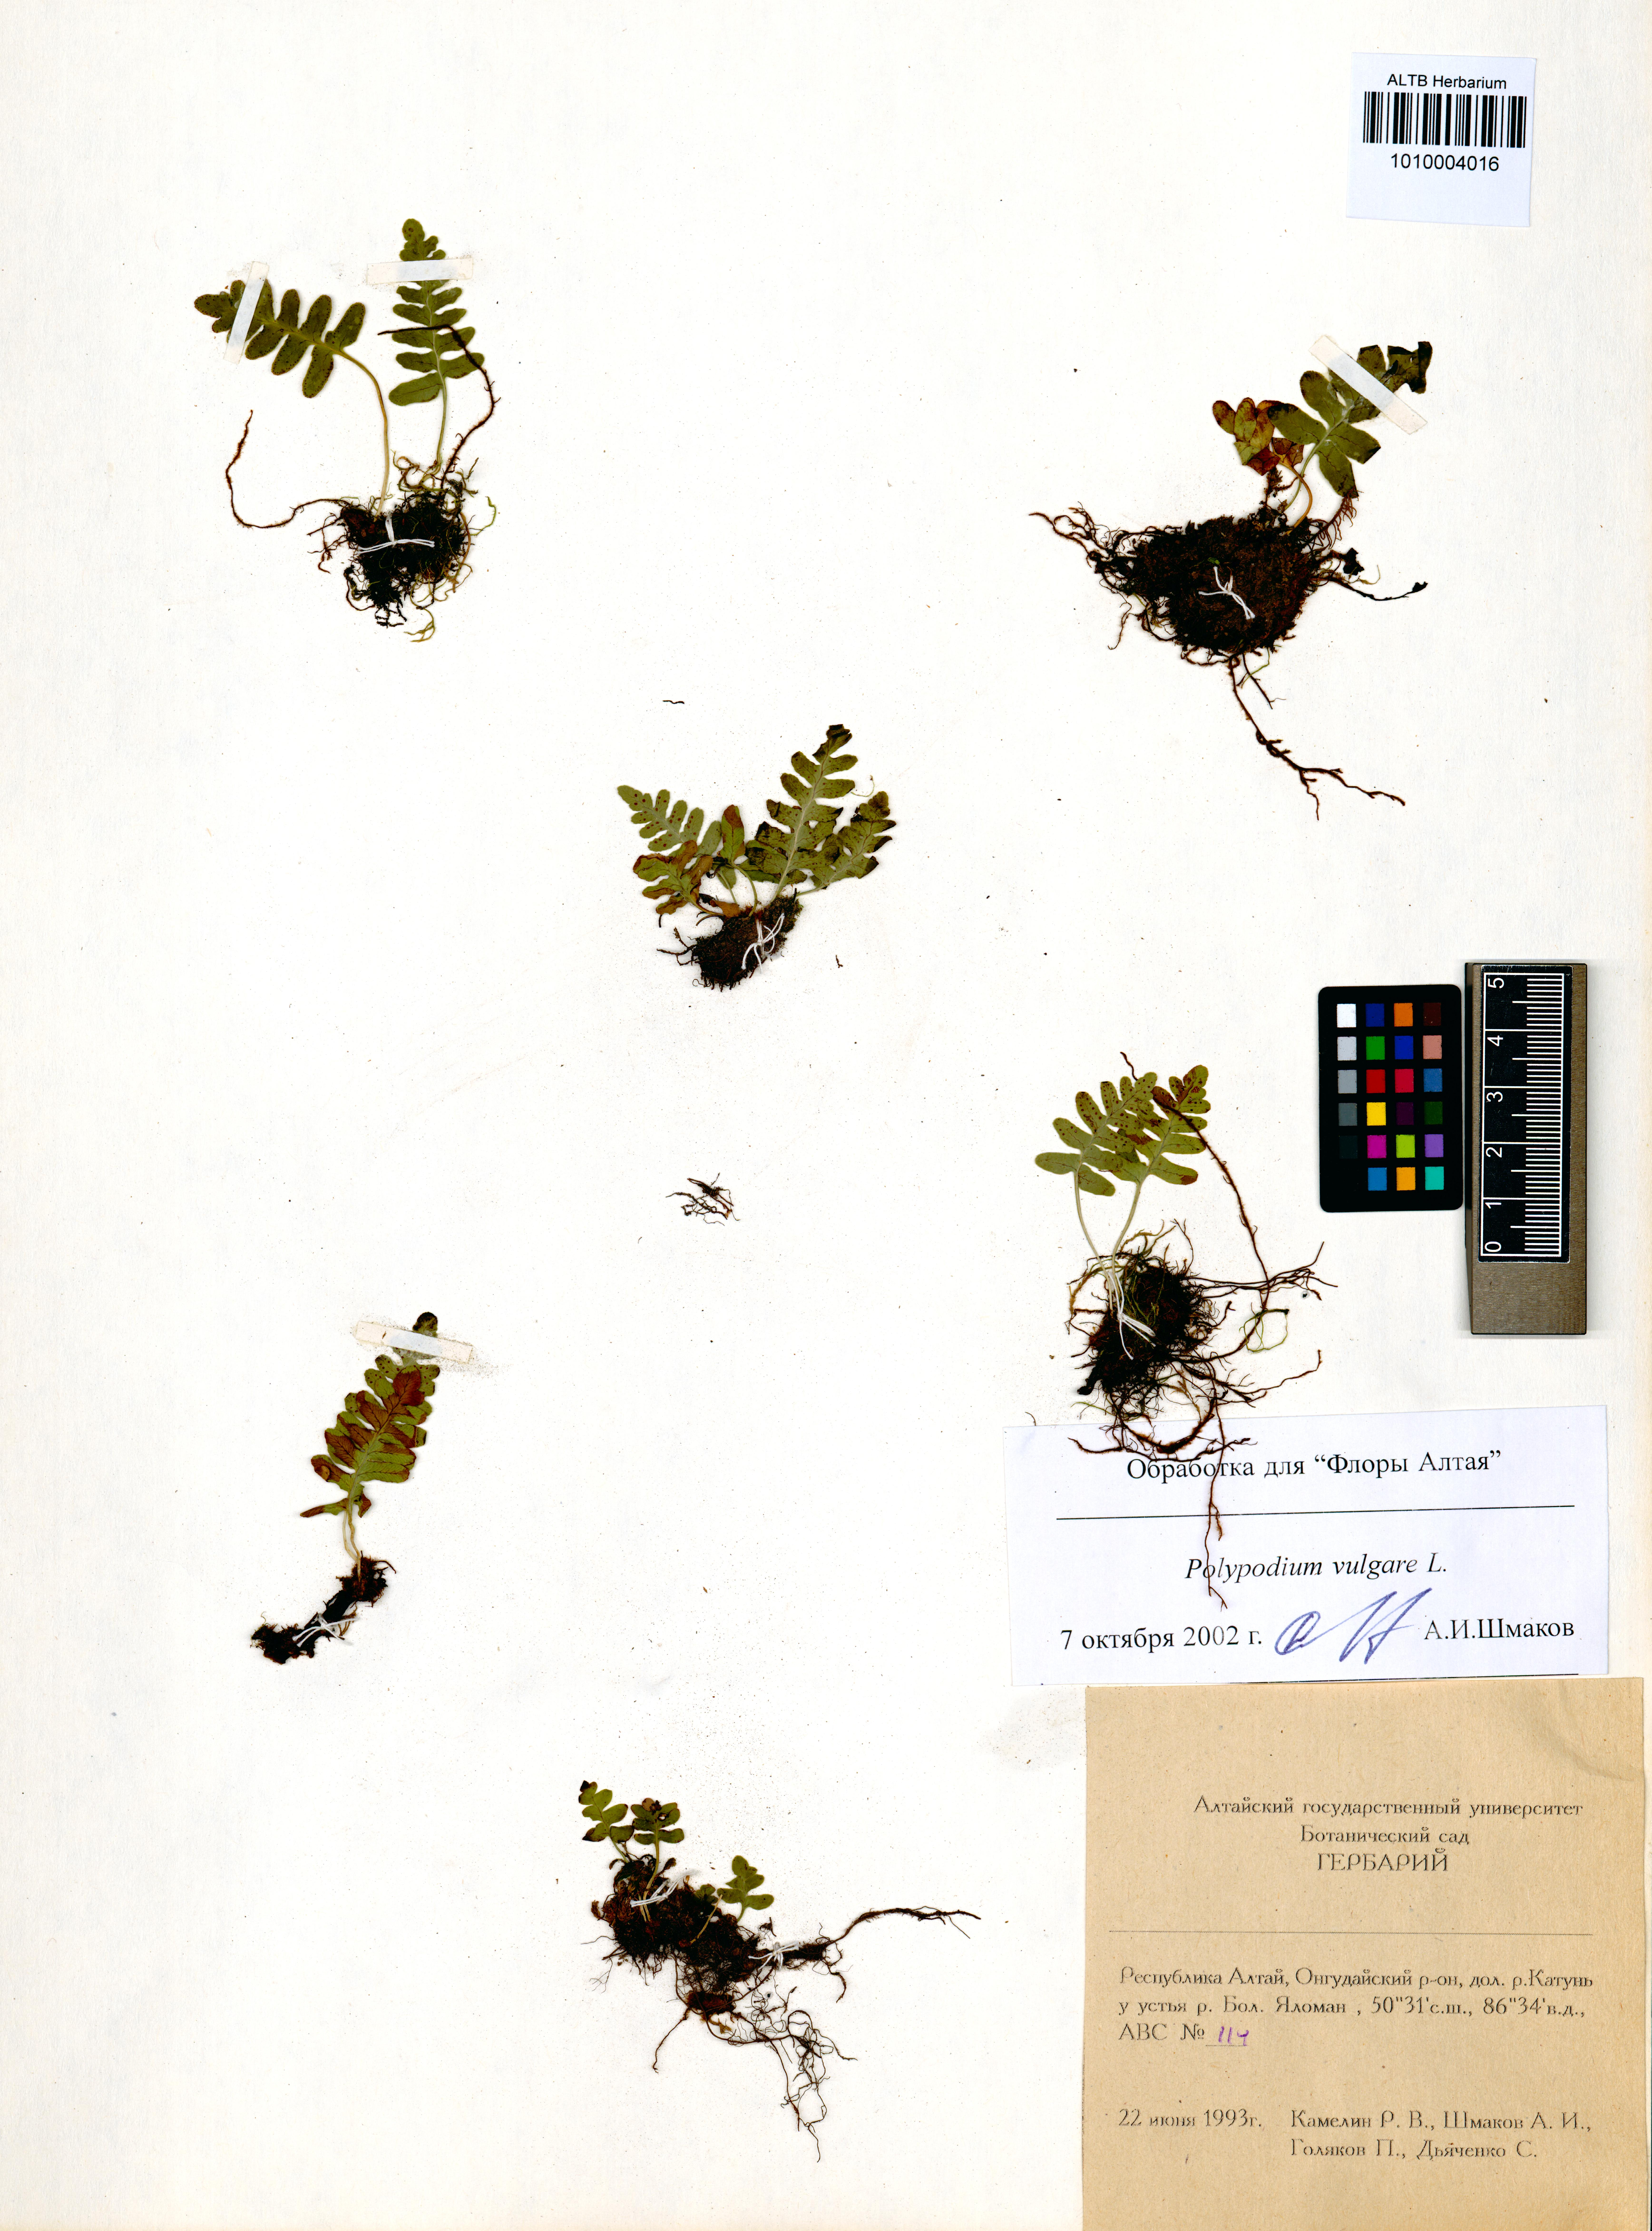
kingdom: Plantae
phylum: Tracheophyta
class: Polypodiopsida
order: Polypodiales
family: Polypodiaceae
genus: Polypodium
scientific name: Polypodium vulgare
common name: Common polypody
